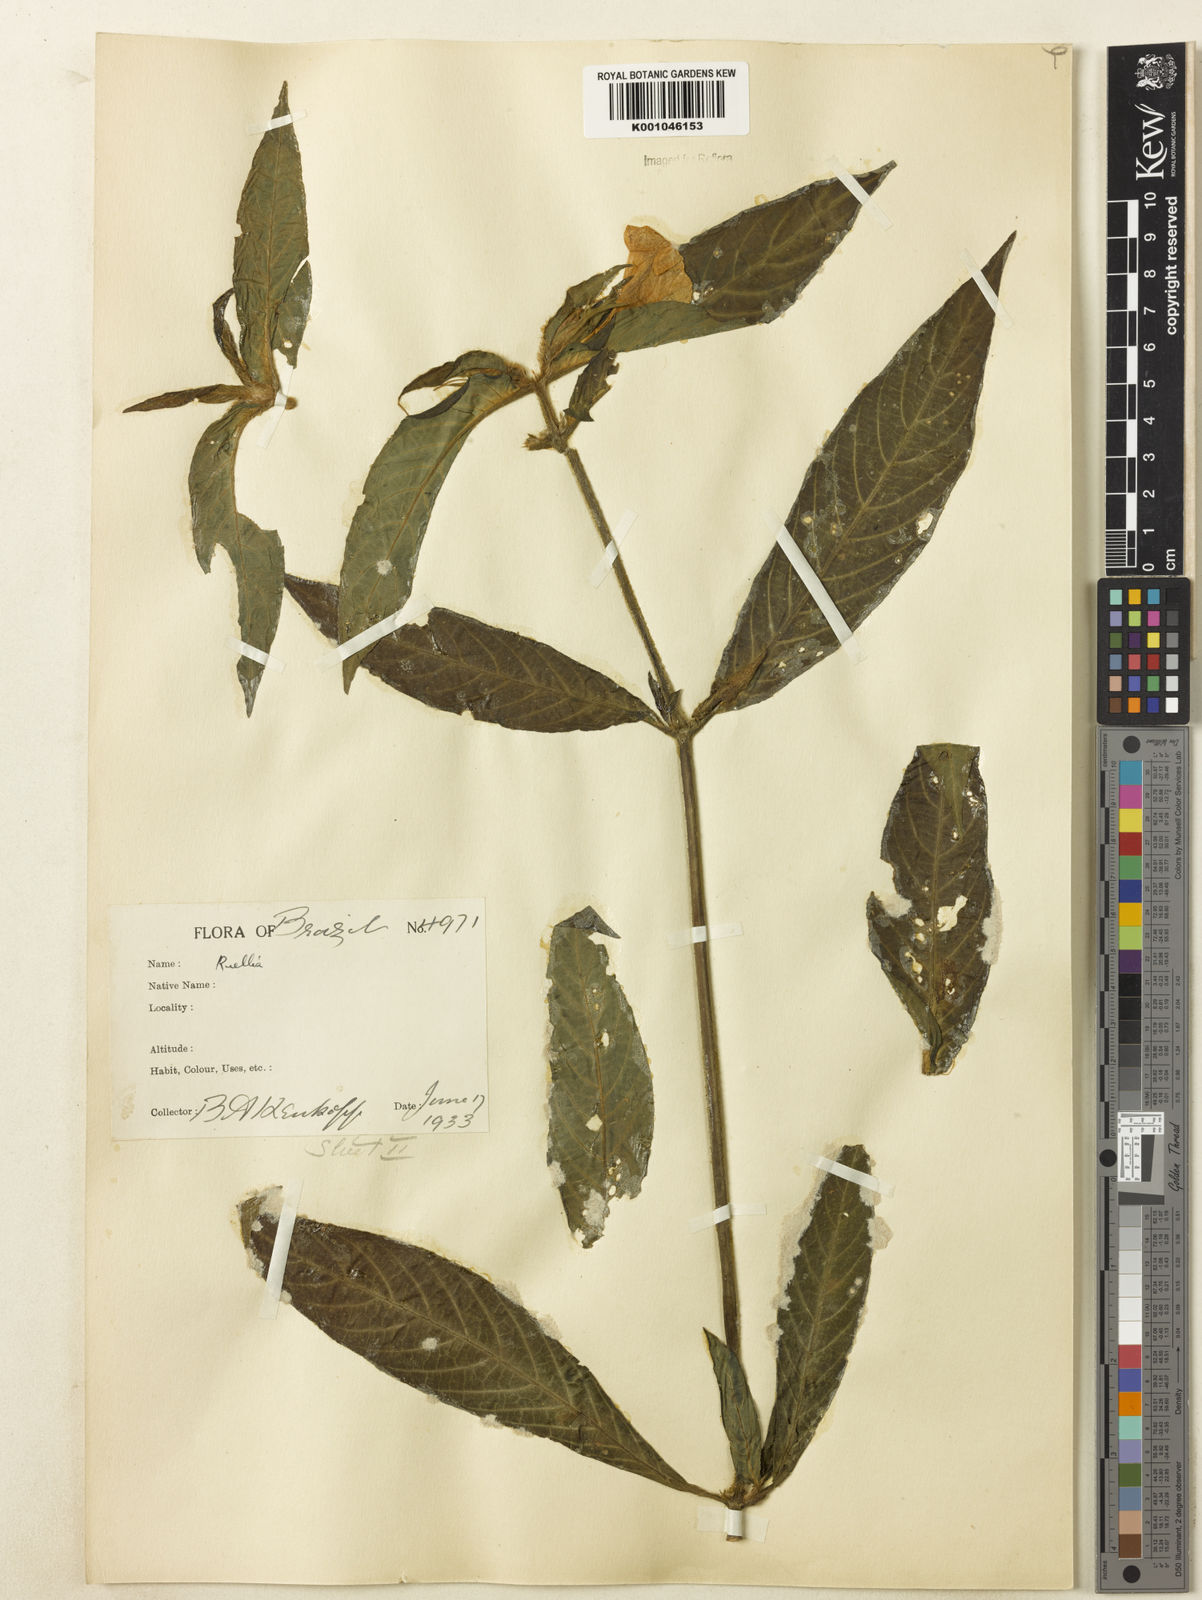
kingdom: Plantae
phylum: Tracheophyta
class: Magnoliopsida
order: Lamiales
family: Acanthaceae
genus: Ruellia
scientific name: Ruellia
